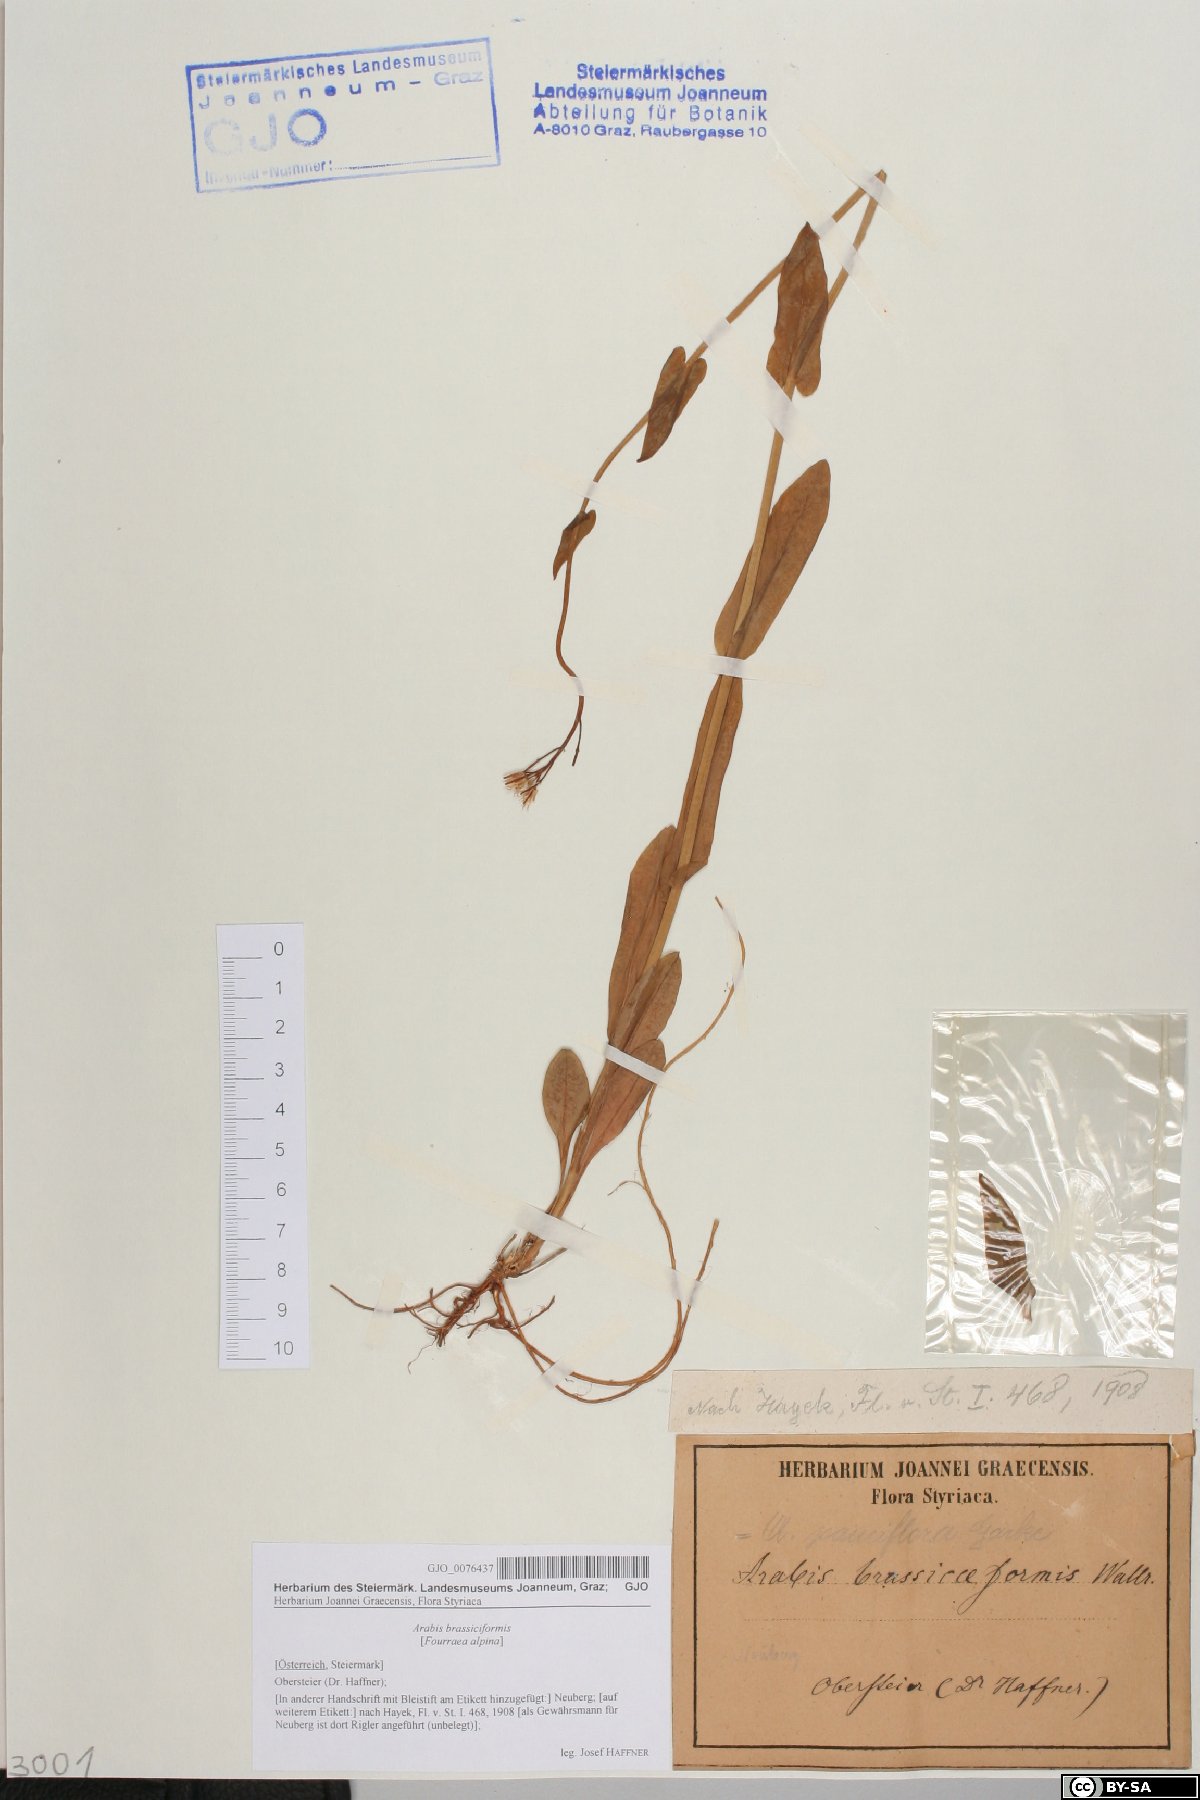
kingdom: Plantae
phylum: Tracheophyta
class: Magnoliopsida
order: Brassicales
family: Brassicaceae
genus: Fourraea
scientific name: Fourraea alpina
